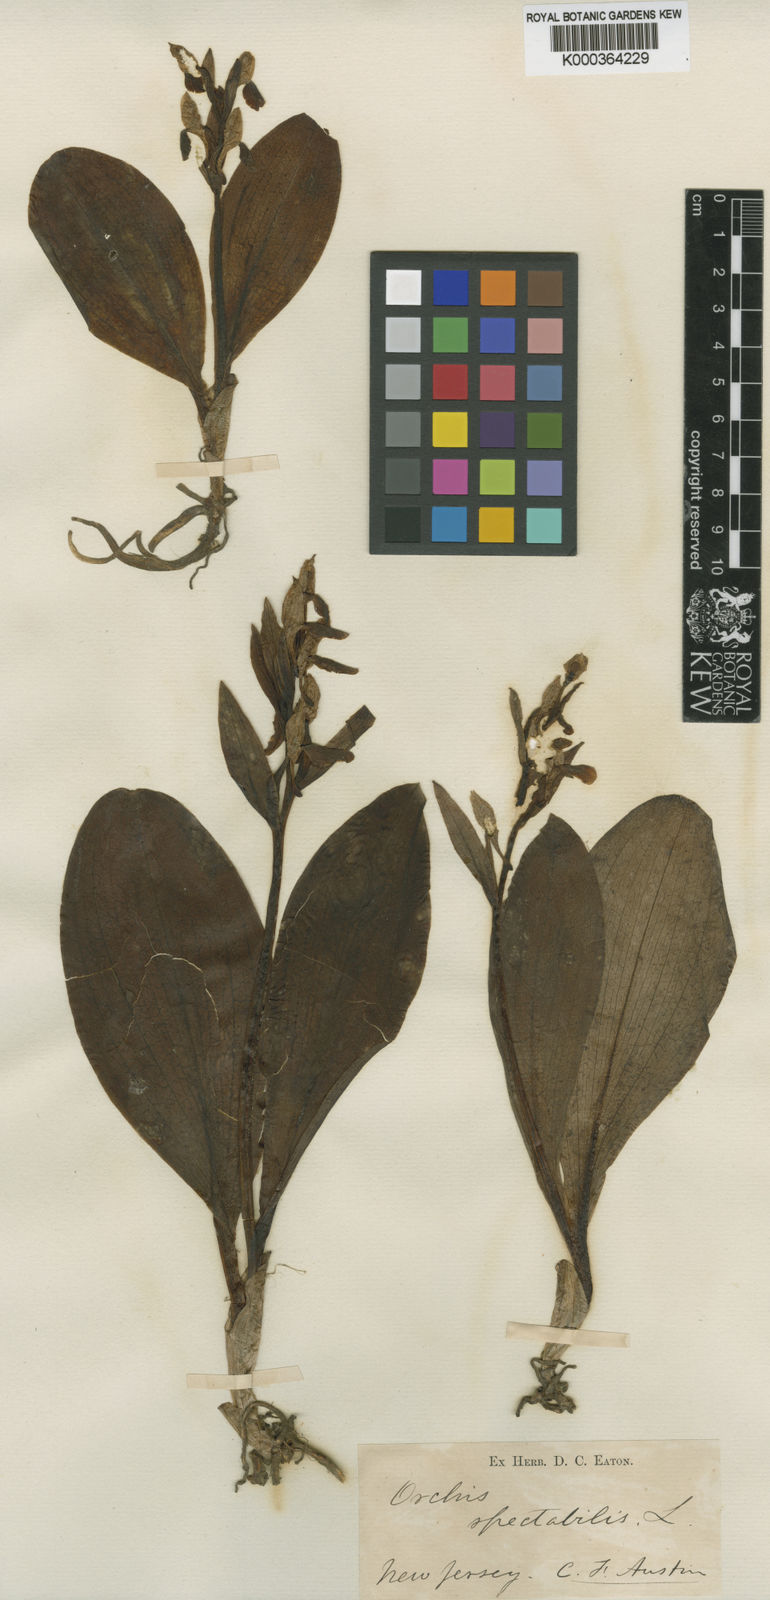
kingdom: Plantae
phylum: Tracheophyta
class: Liliopsida
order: Asparagales
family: Orchidaceae
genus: Galearis
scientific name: Galearis spectabilis
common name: Purple-hooded orchis
